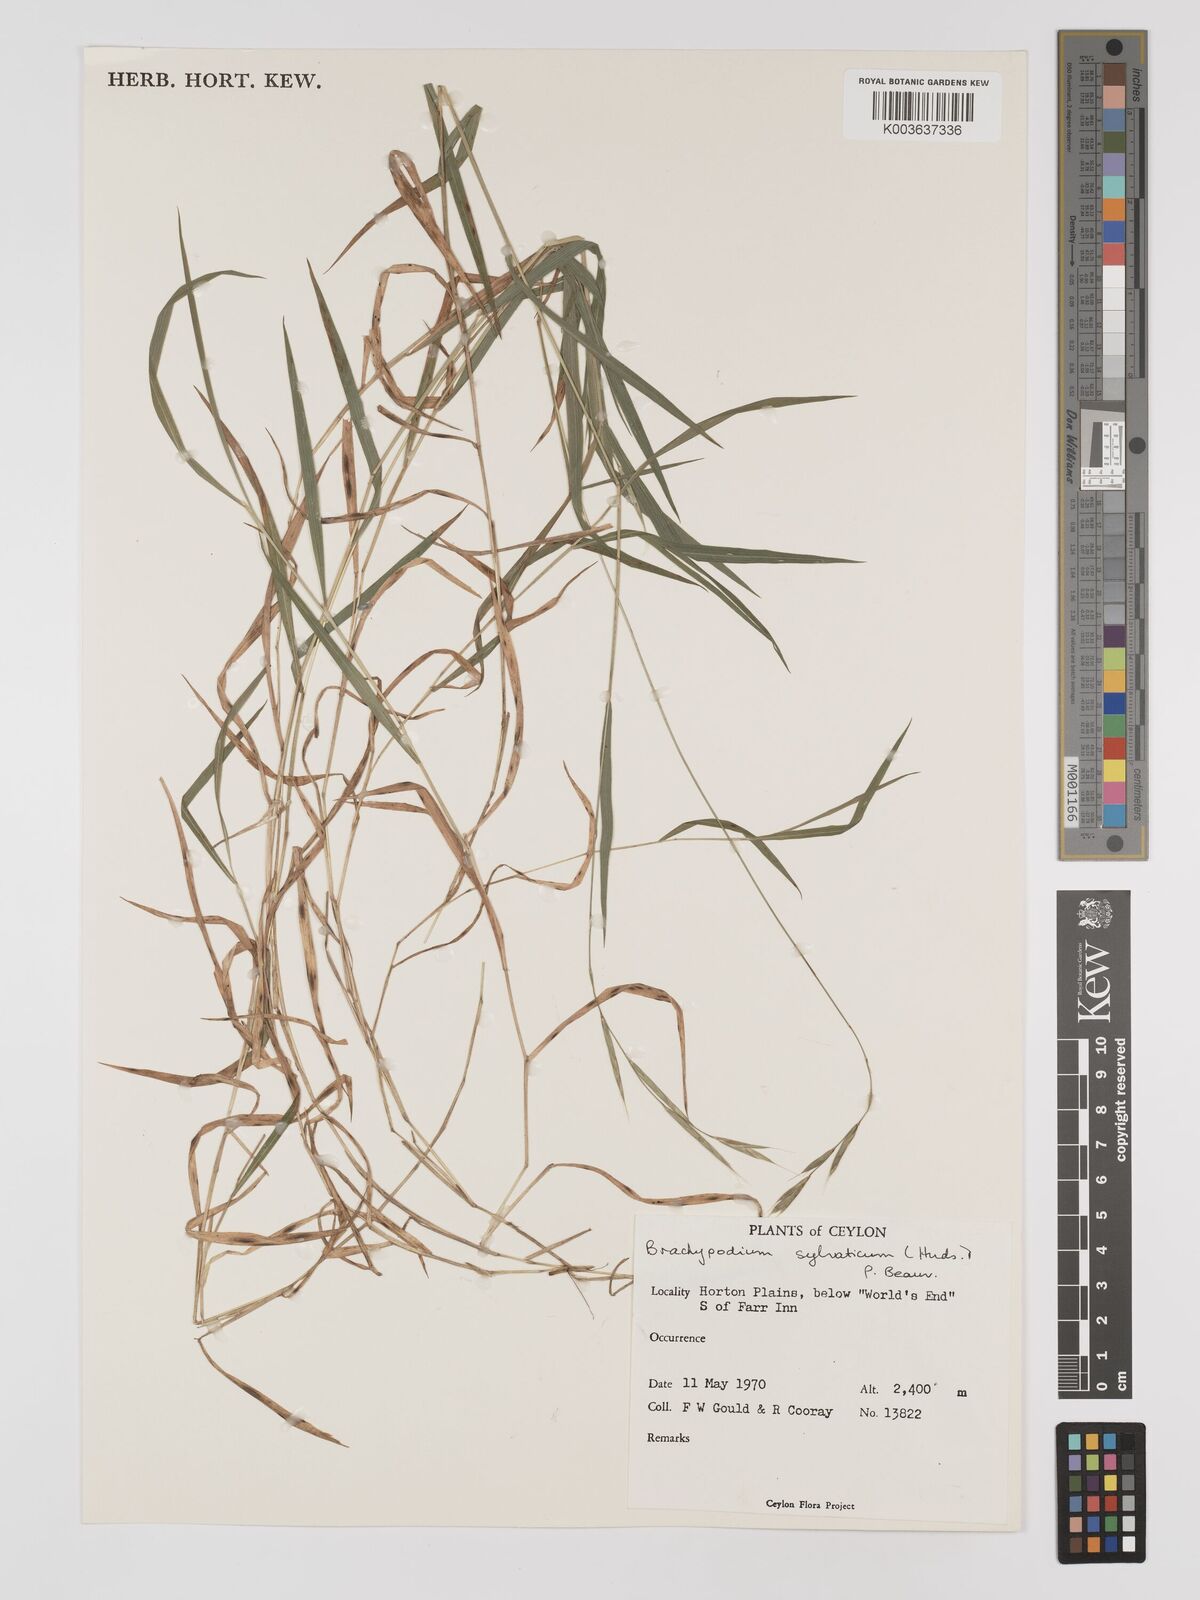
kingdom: Plantae
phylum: Tracheophyta
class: Liliopsida
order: Poales
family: Poaceae
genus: Brachypodium
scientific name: Brachypodium sylvaticum
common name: False-brome
